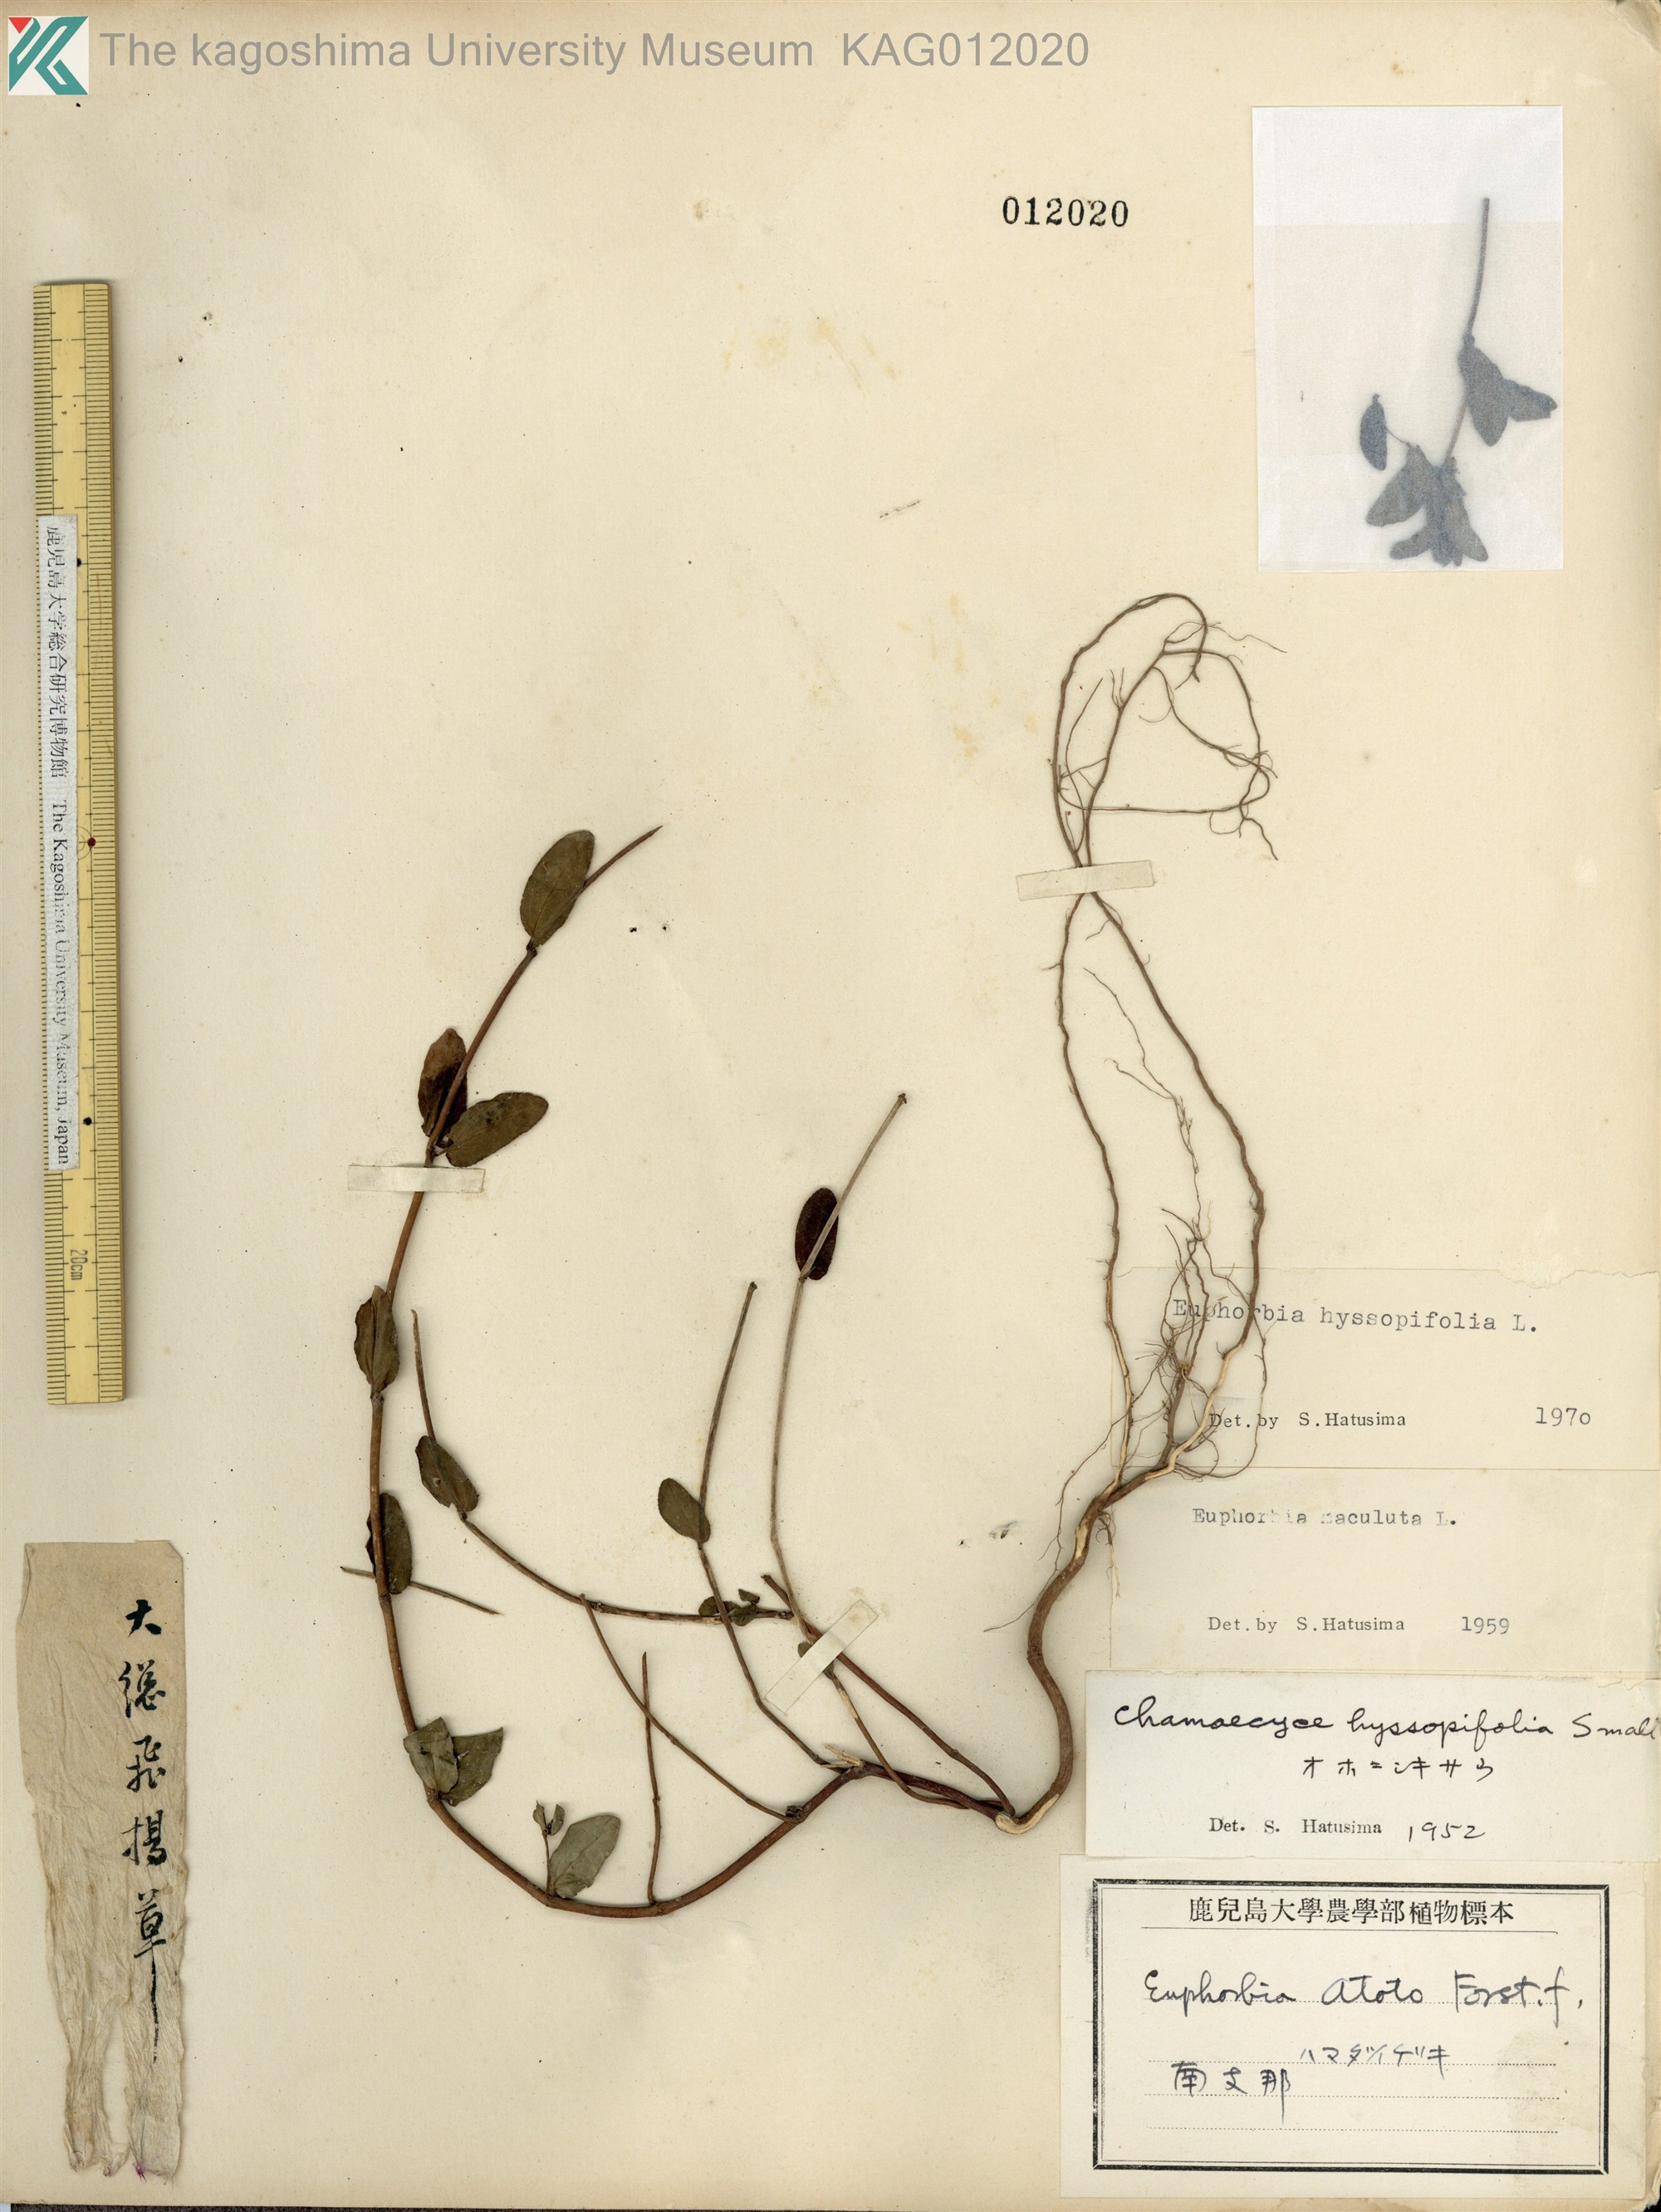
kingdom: Plantae
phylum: Tracheophyta
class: Magnoliopsida
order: Malpighiales
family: Euphorbiaceae
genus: Euphorbia
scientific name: Euphorbia hyssopifolia
